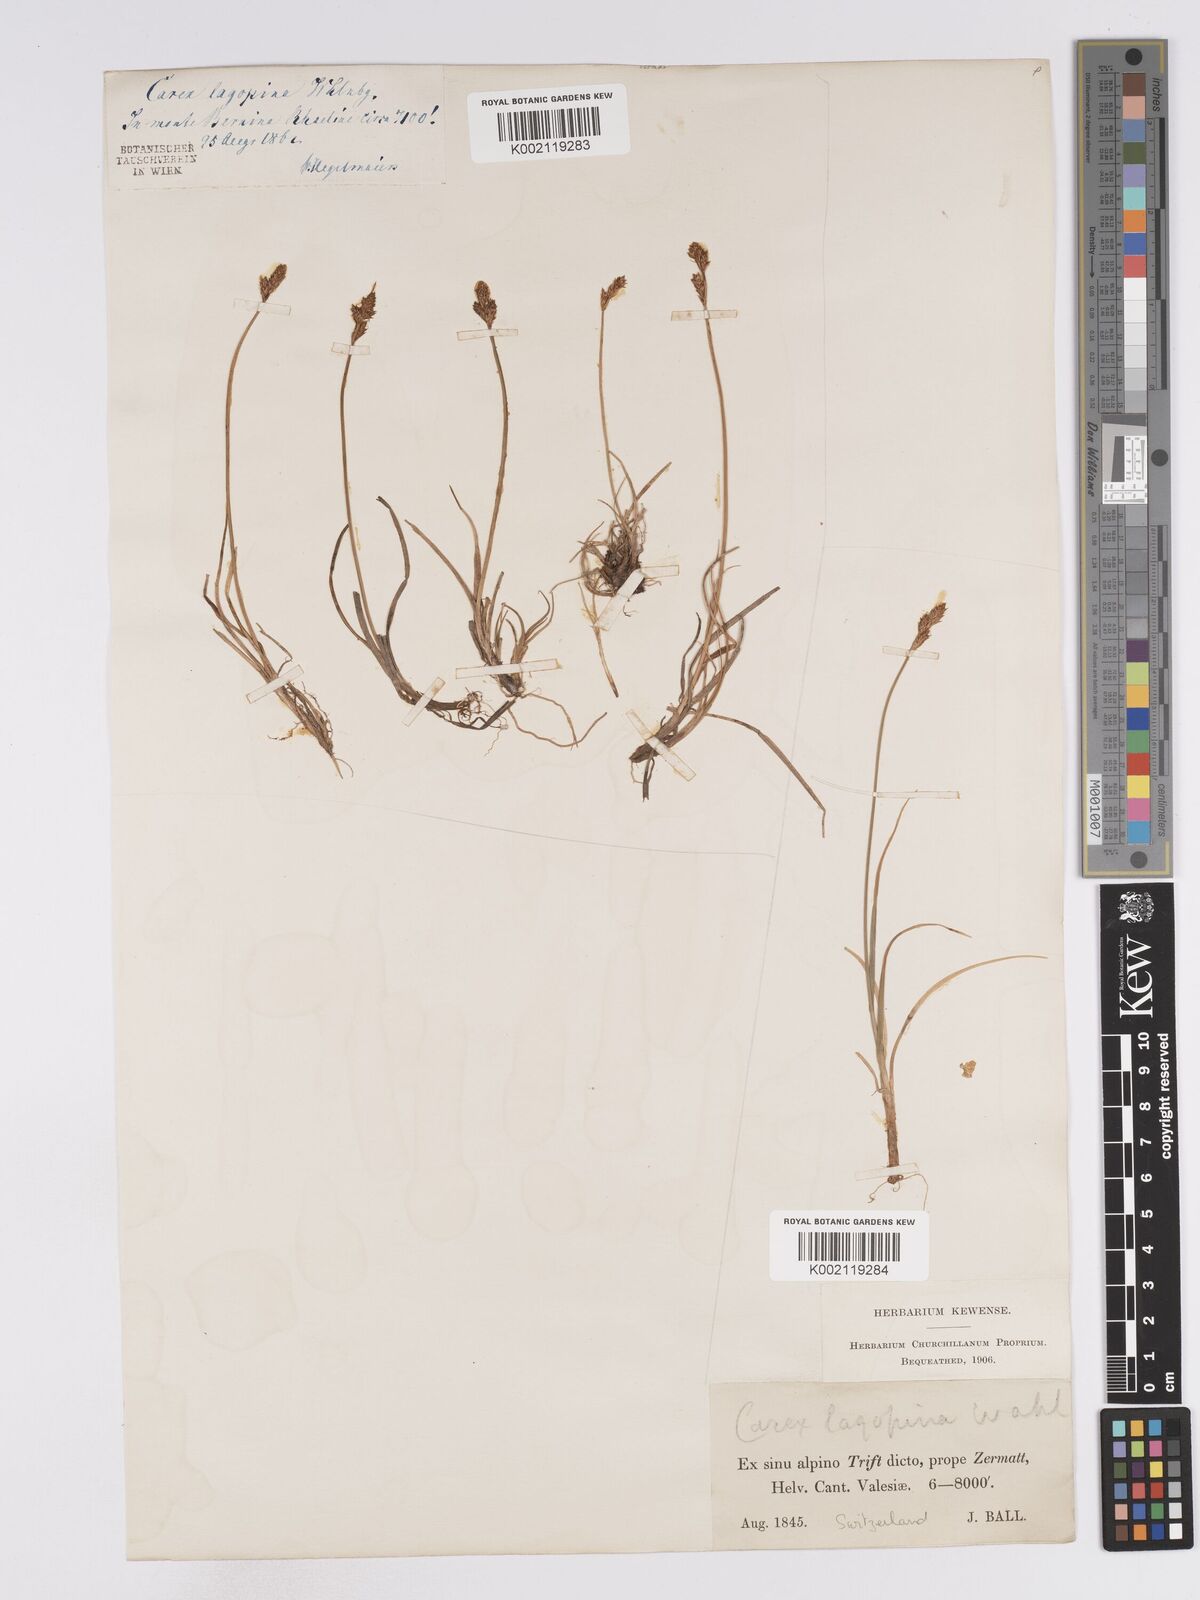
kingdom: Plantae
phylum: Tracheophyta
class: Liliopsida
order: Poales
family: Cyperaceae
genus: Carex
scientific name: Carex lachenalii
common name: Hare's-foot sedge
